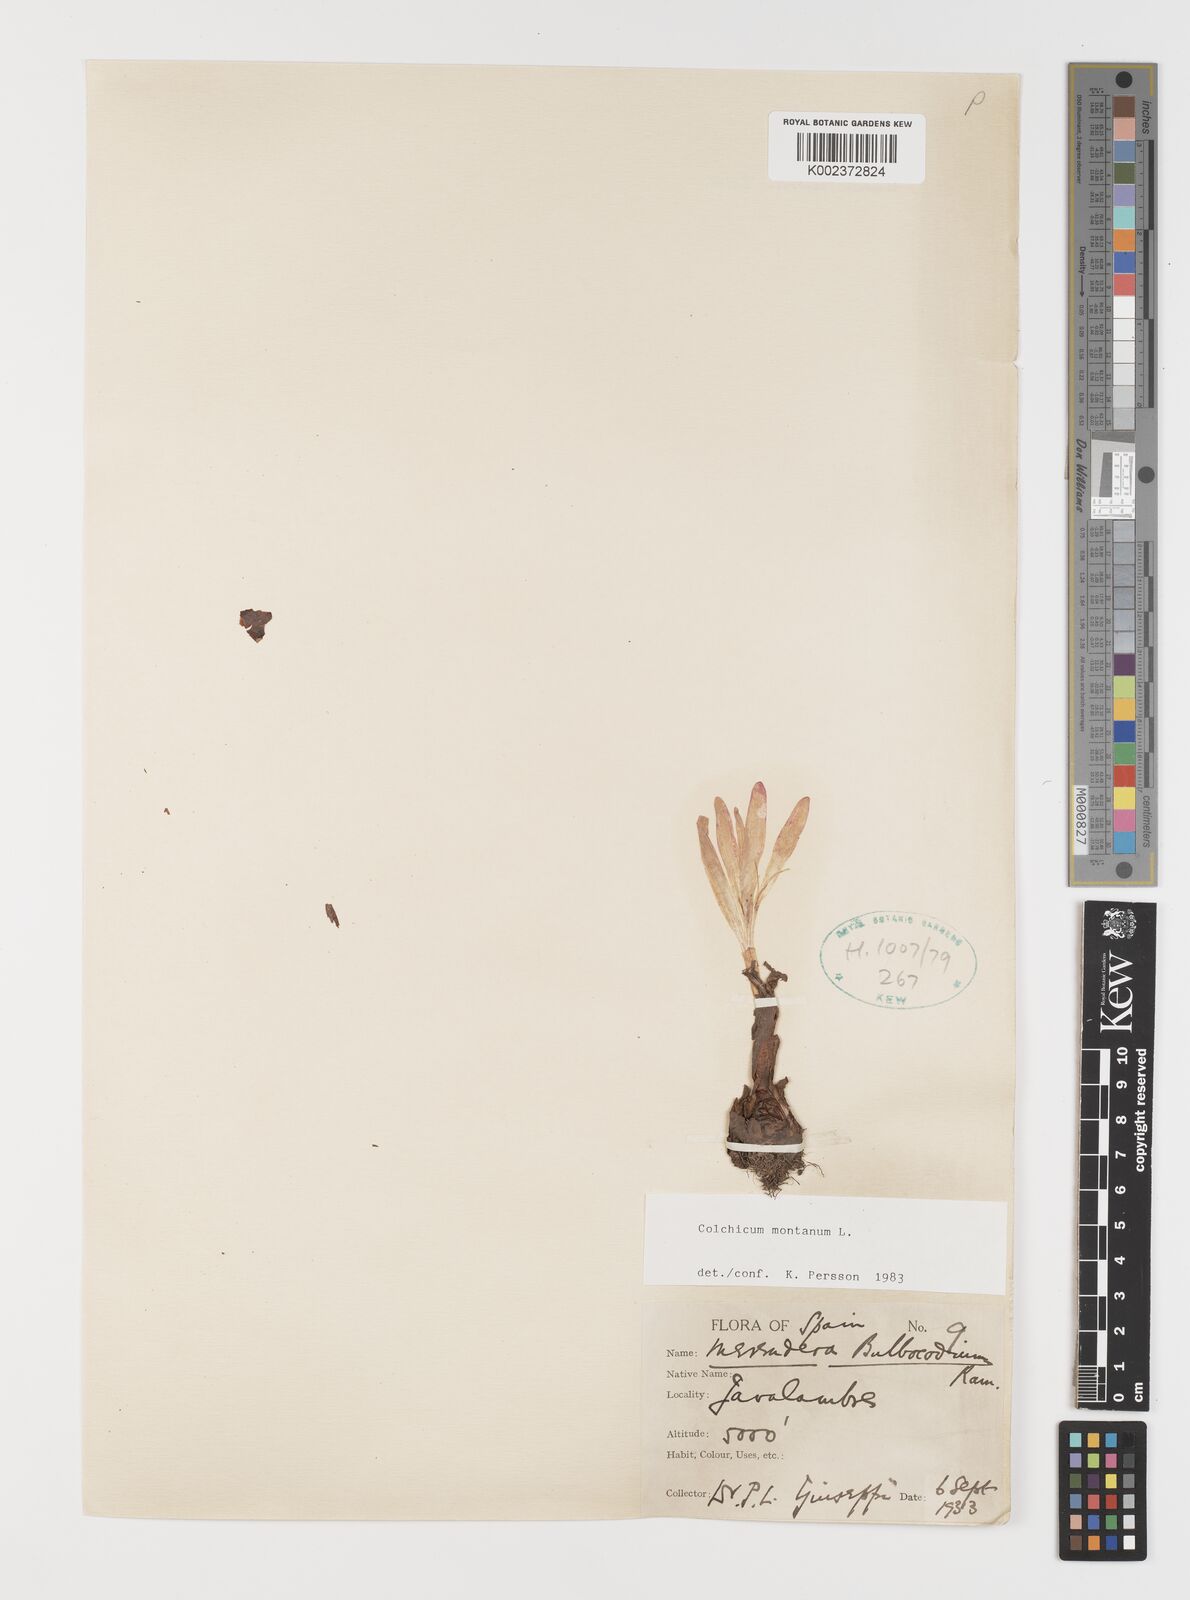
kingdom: Plantae
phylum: Tracheophyta
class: Liliopsida
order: Liliales
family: Colchicaceae
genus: Colchicum
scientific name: Colchicum montanum
